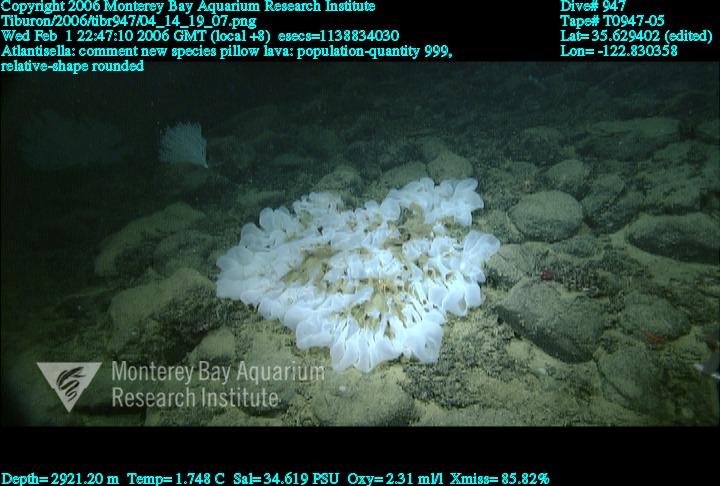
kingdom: Animalia
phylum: Porifera
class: Hexactinellida
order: Lyssacinosida
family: Euplectellidae
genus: Atlantisella
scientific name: Atlantisella
